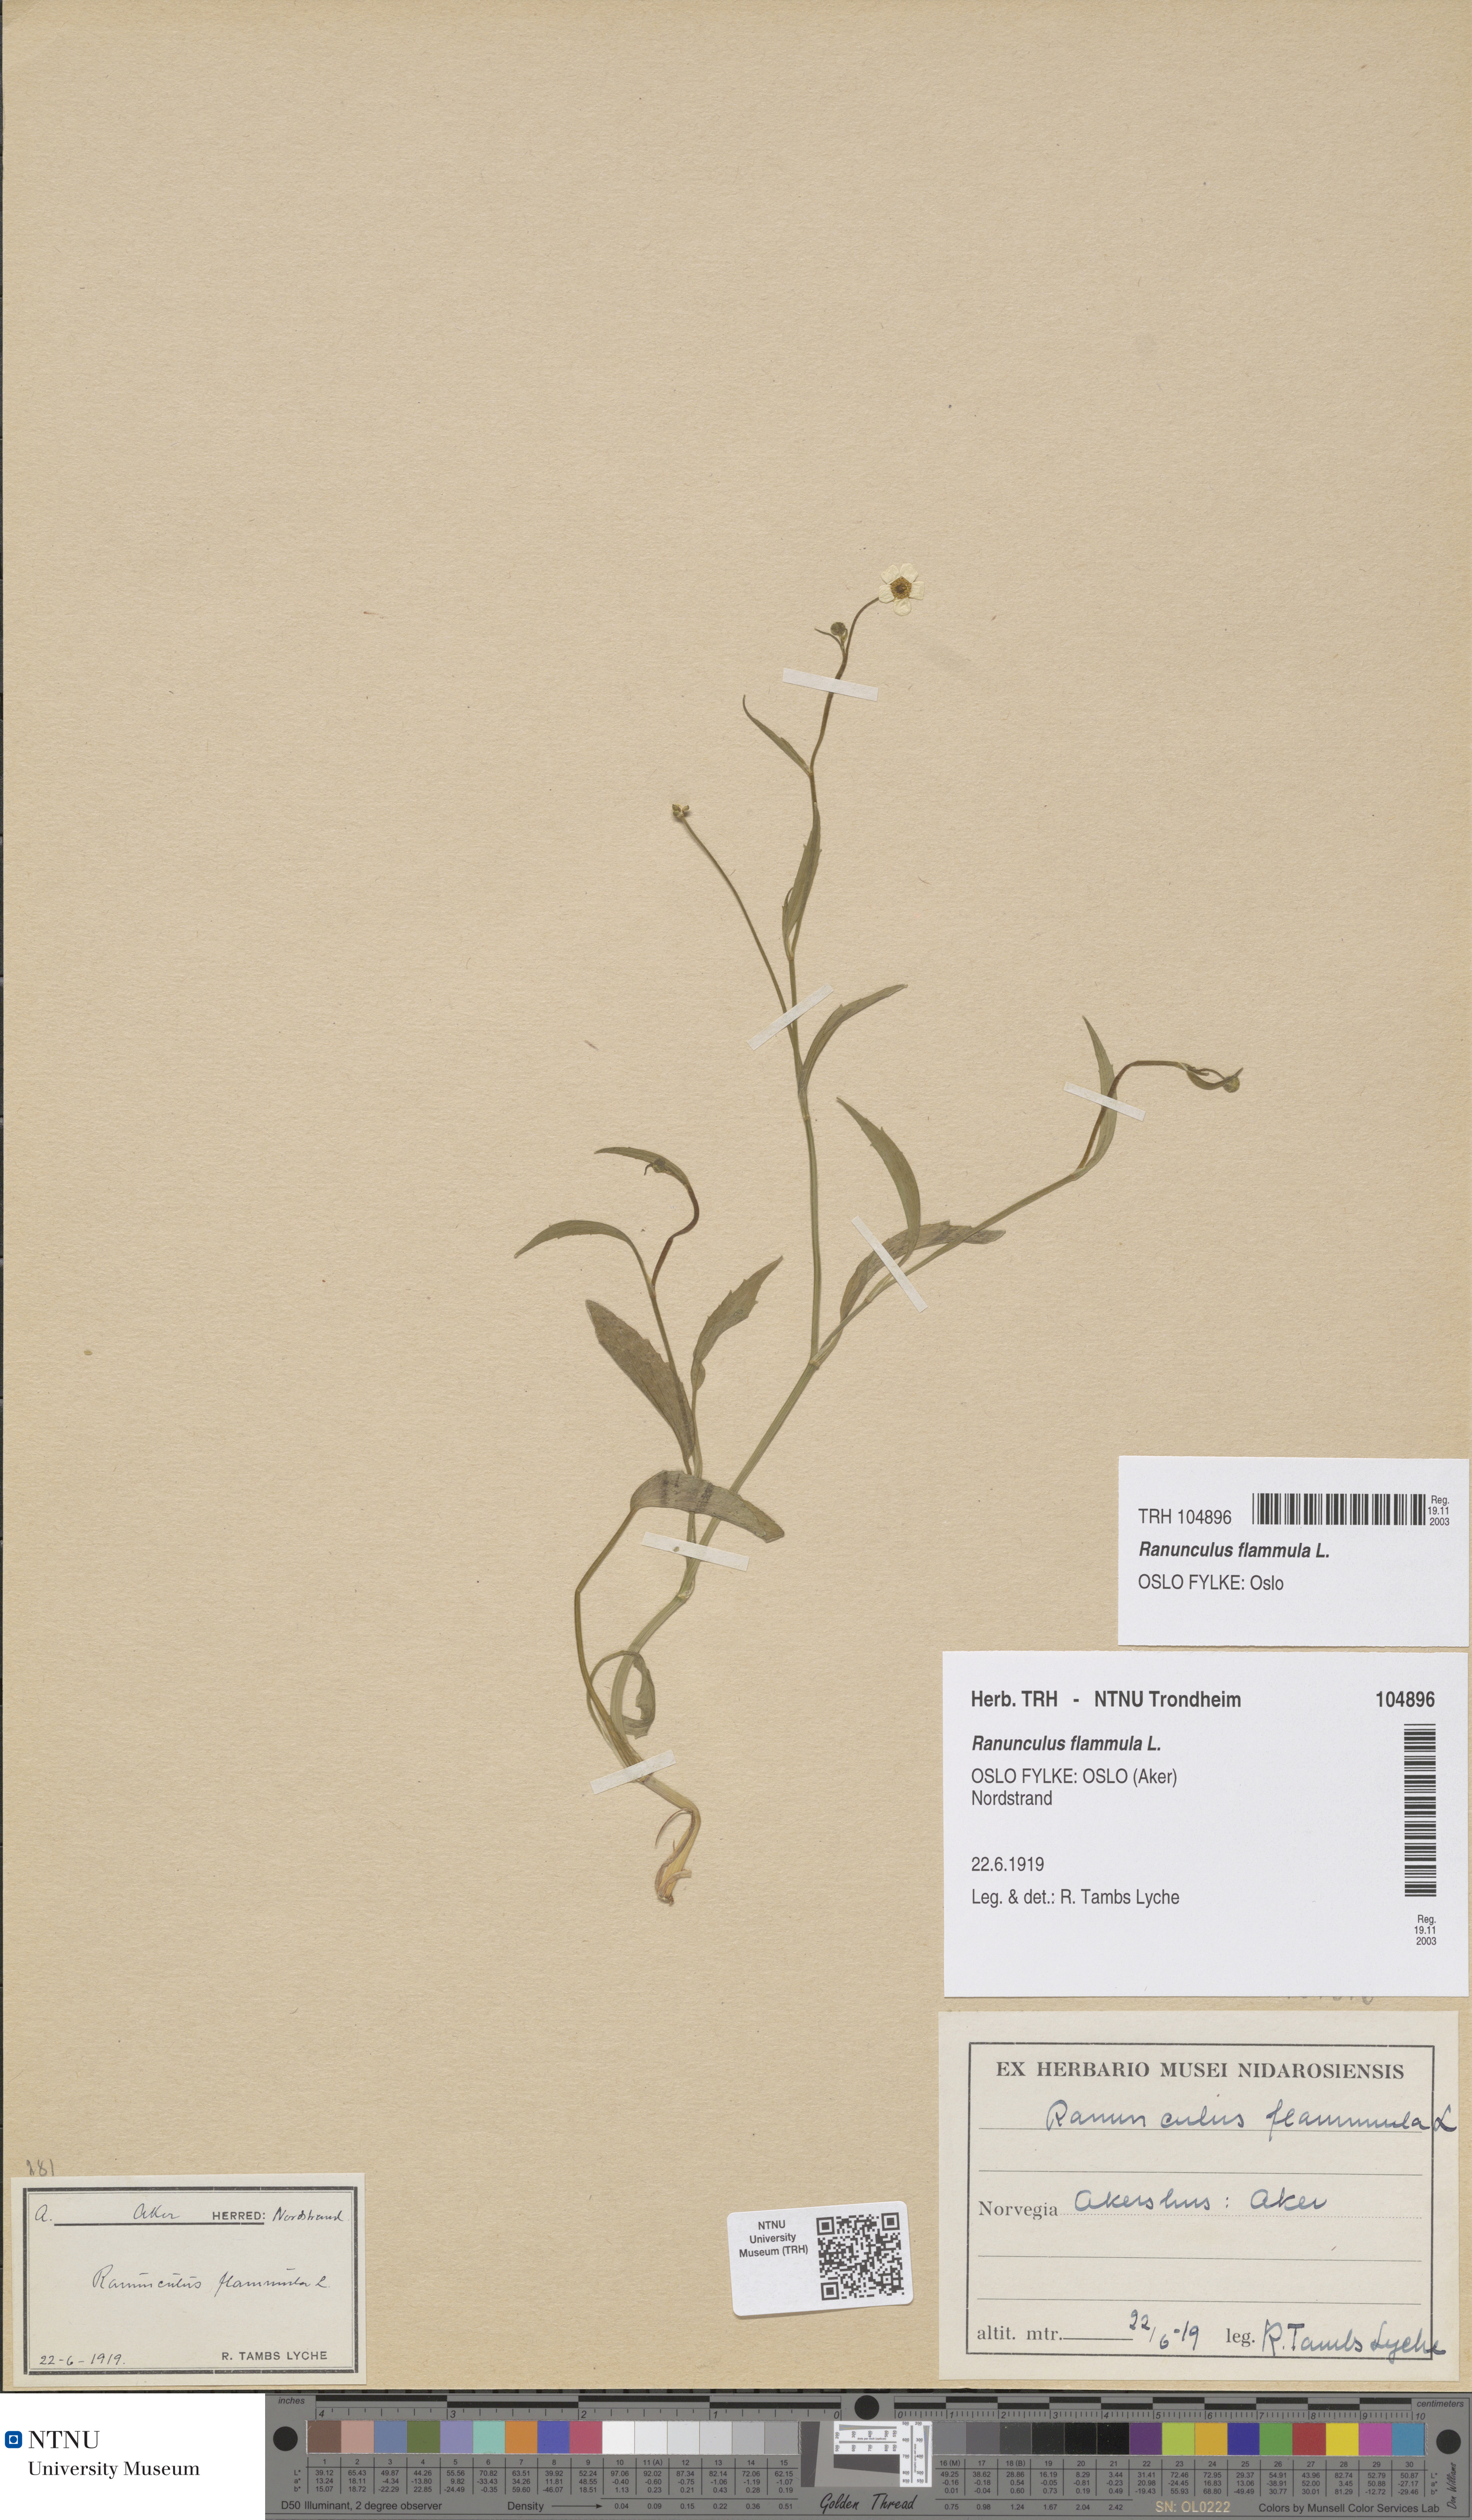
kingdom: Plantae
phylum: Tracheophyta
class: Magnoliopsida
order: Ranunculales
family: Ranunculaceae
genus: Ranunculus
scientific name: Ranunculus flammula
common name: Lesser spearwort
